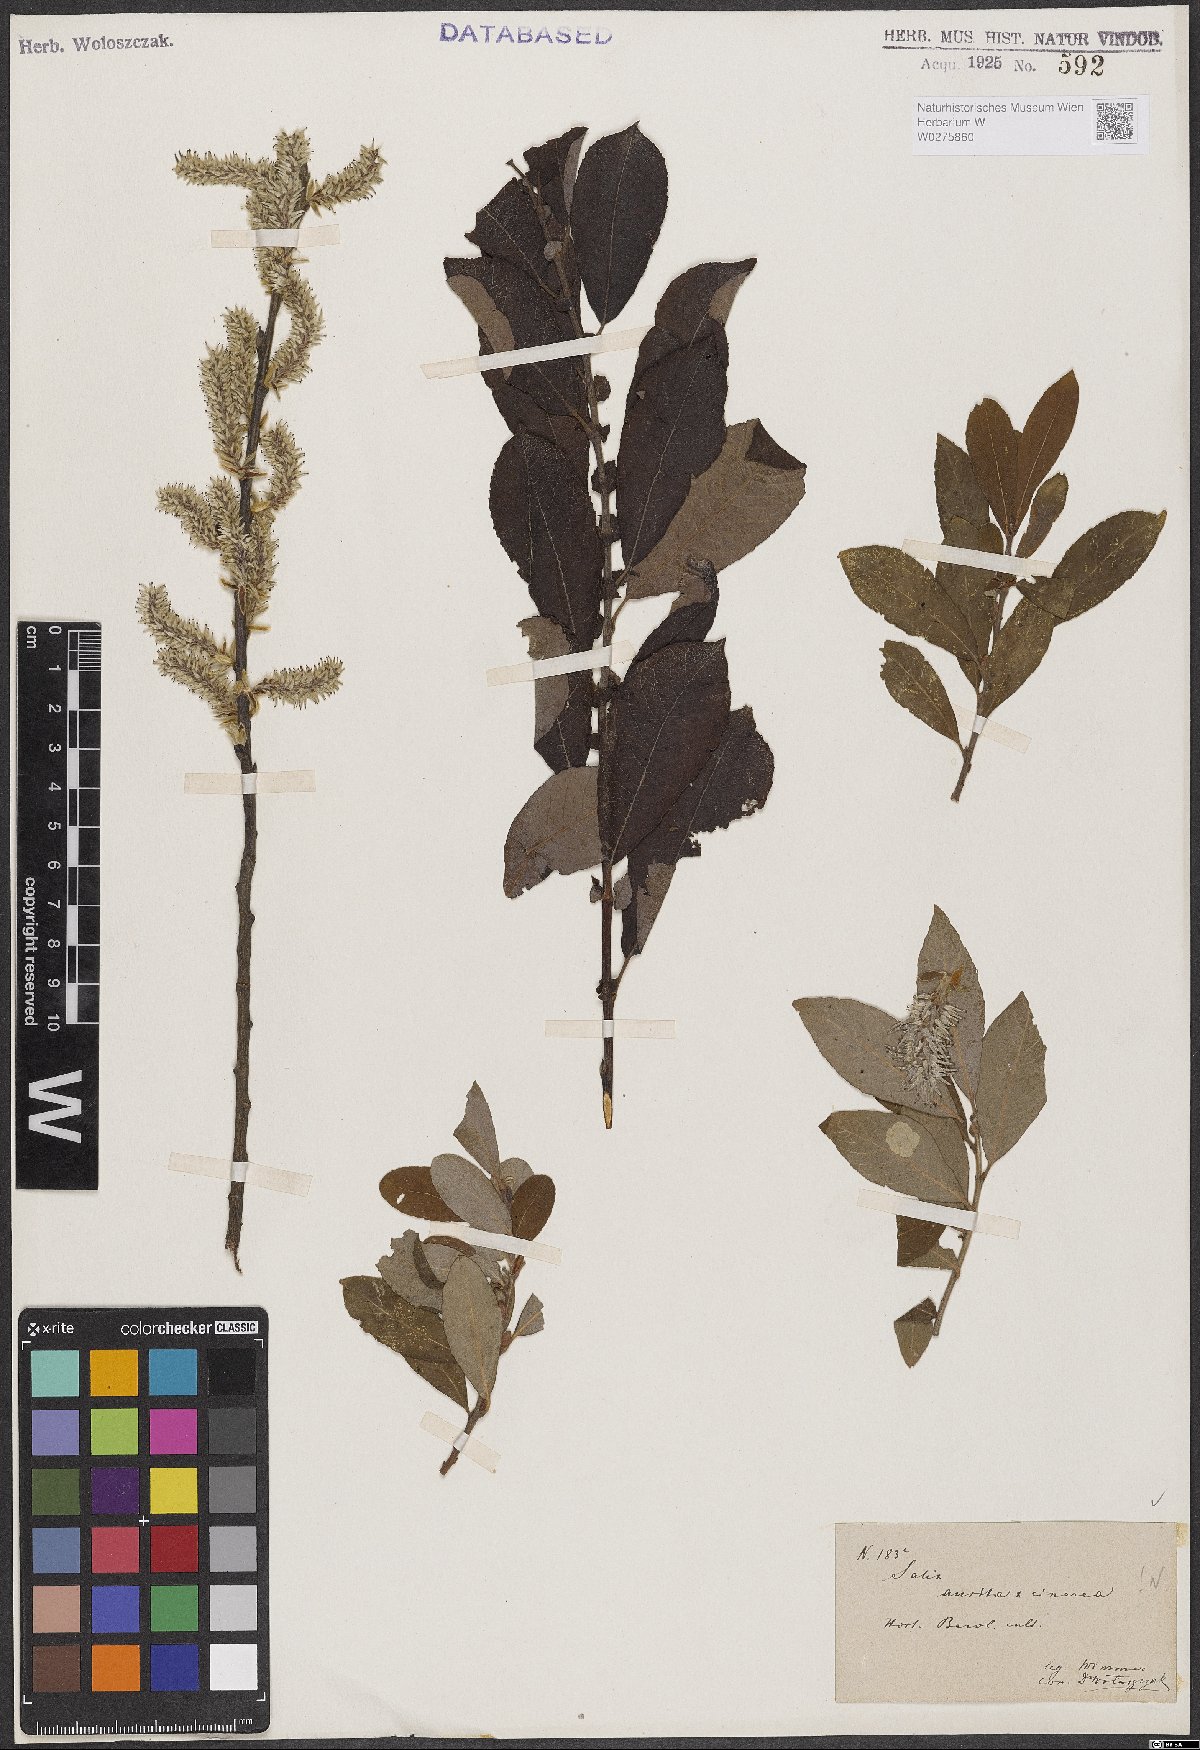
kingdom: Plantae
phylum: Tracheophyta
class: Magnoliopsida
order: Malpighiales
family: Salicaceae
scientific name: Salicaceae
